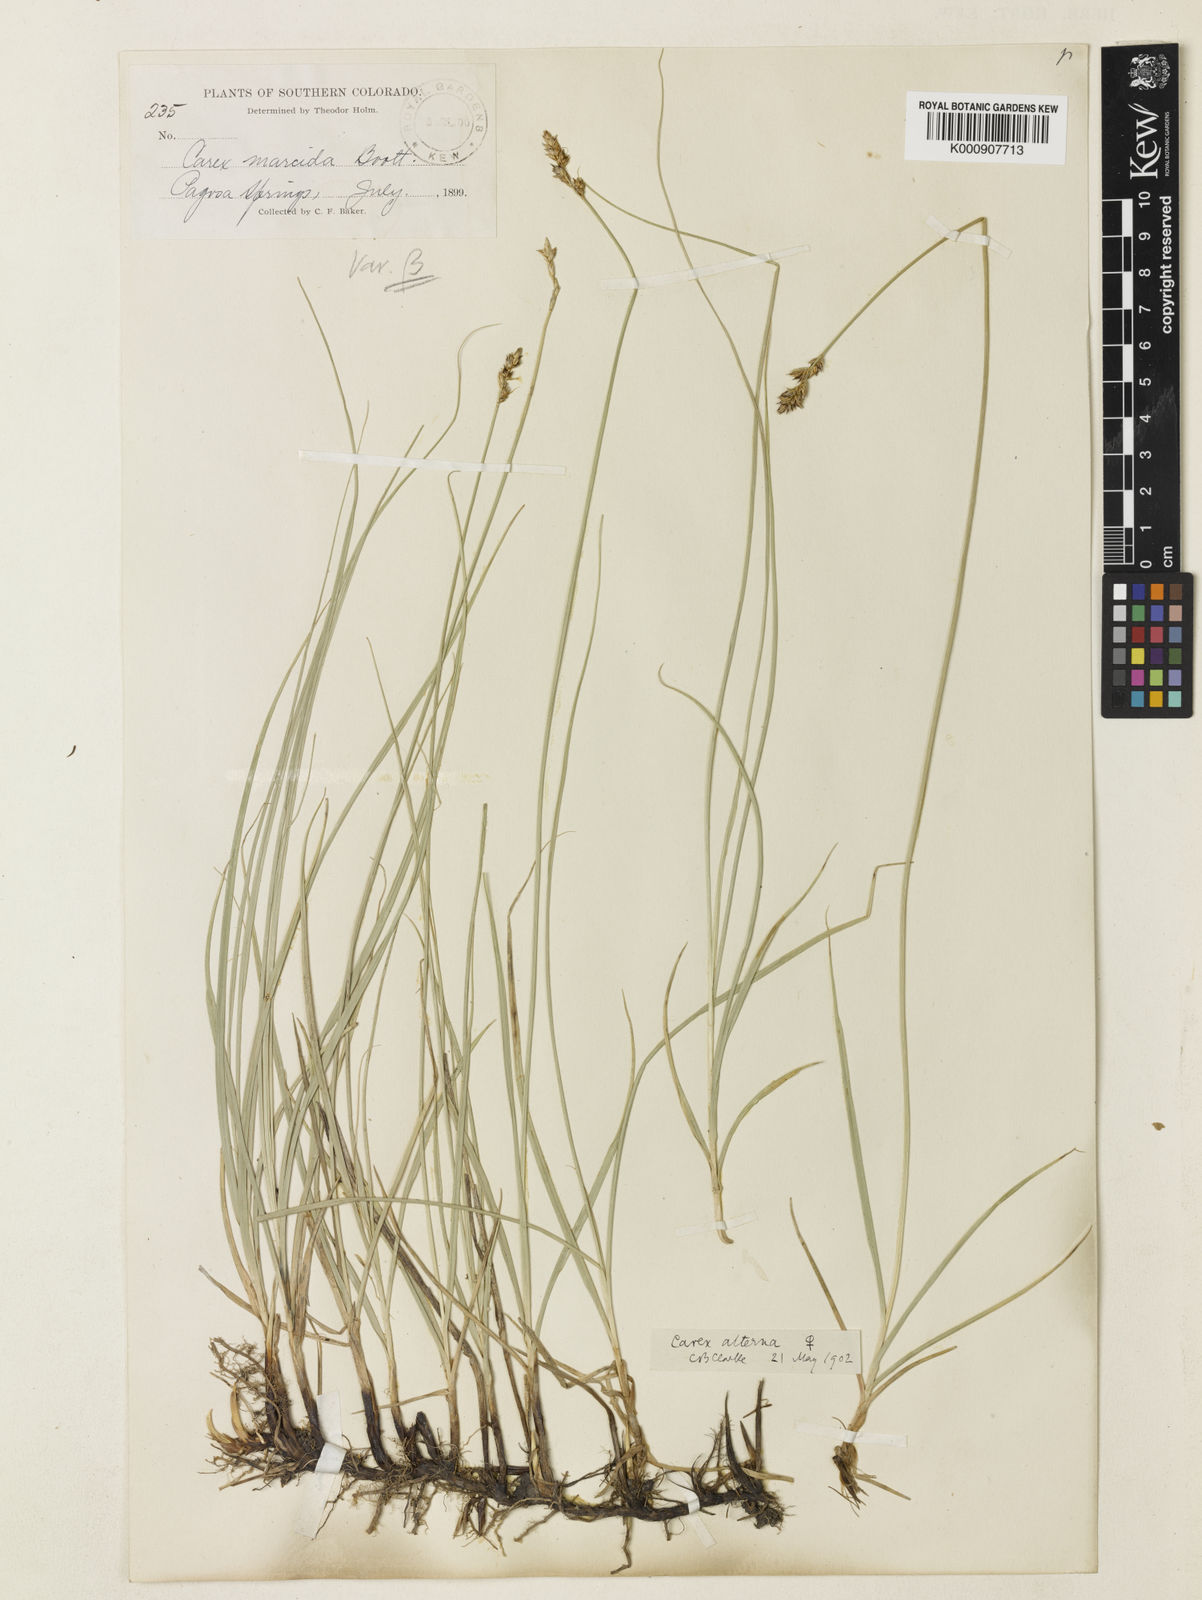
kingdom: Plantae
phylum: Tracheophyta
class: Liliopsida
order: Poales
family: Cyperaceae
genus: Carex
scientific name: Carex praegracilis
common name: Black creeper sedge
